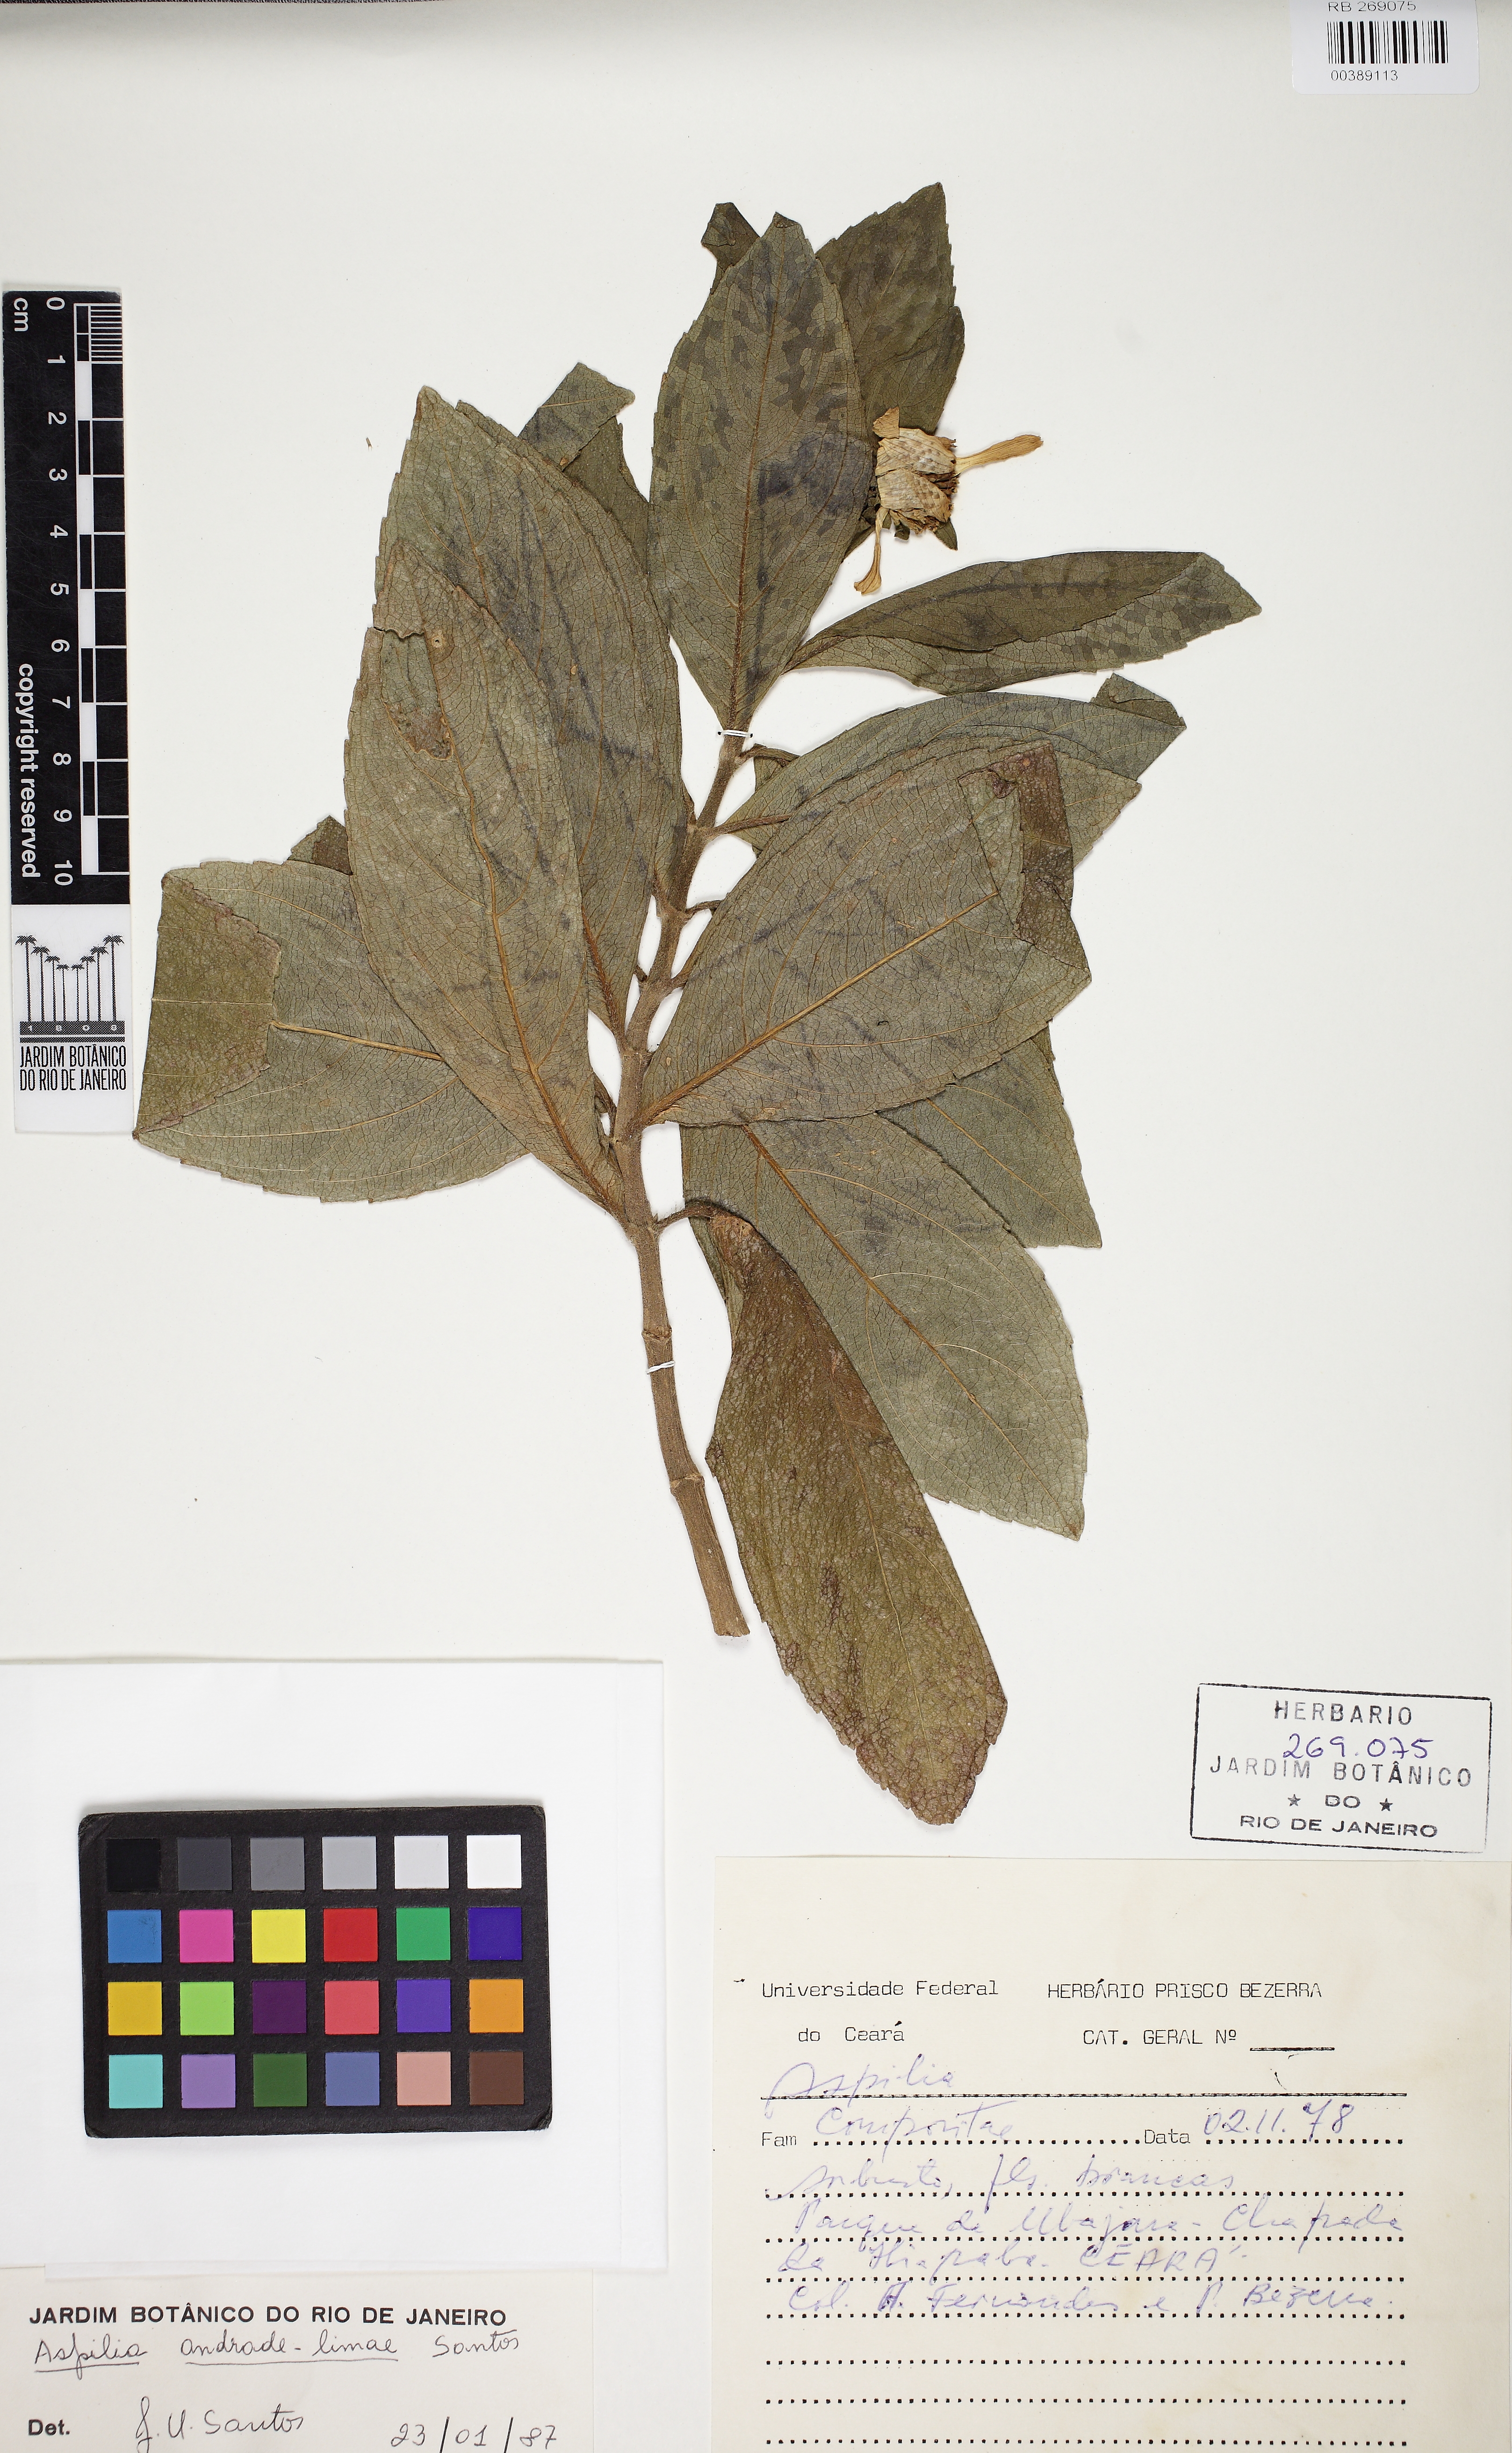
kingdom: Plantae
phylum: Tracheophyta
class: Magnoliopsida
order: Asterales
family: Asteraceae
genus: Aspilia
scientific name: Aspilia andrade-limae
